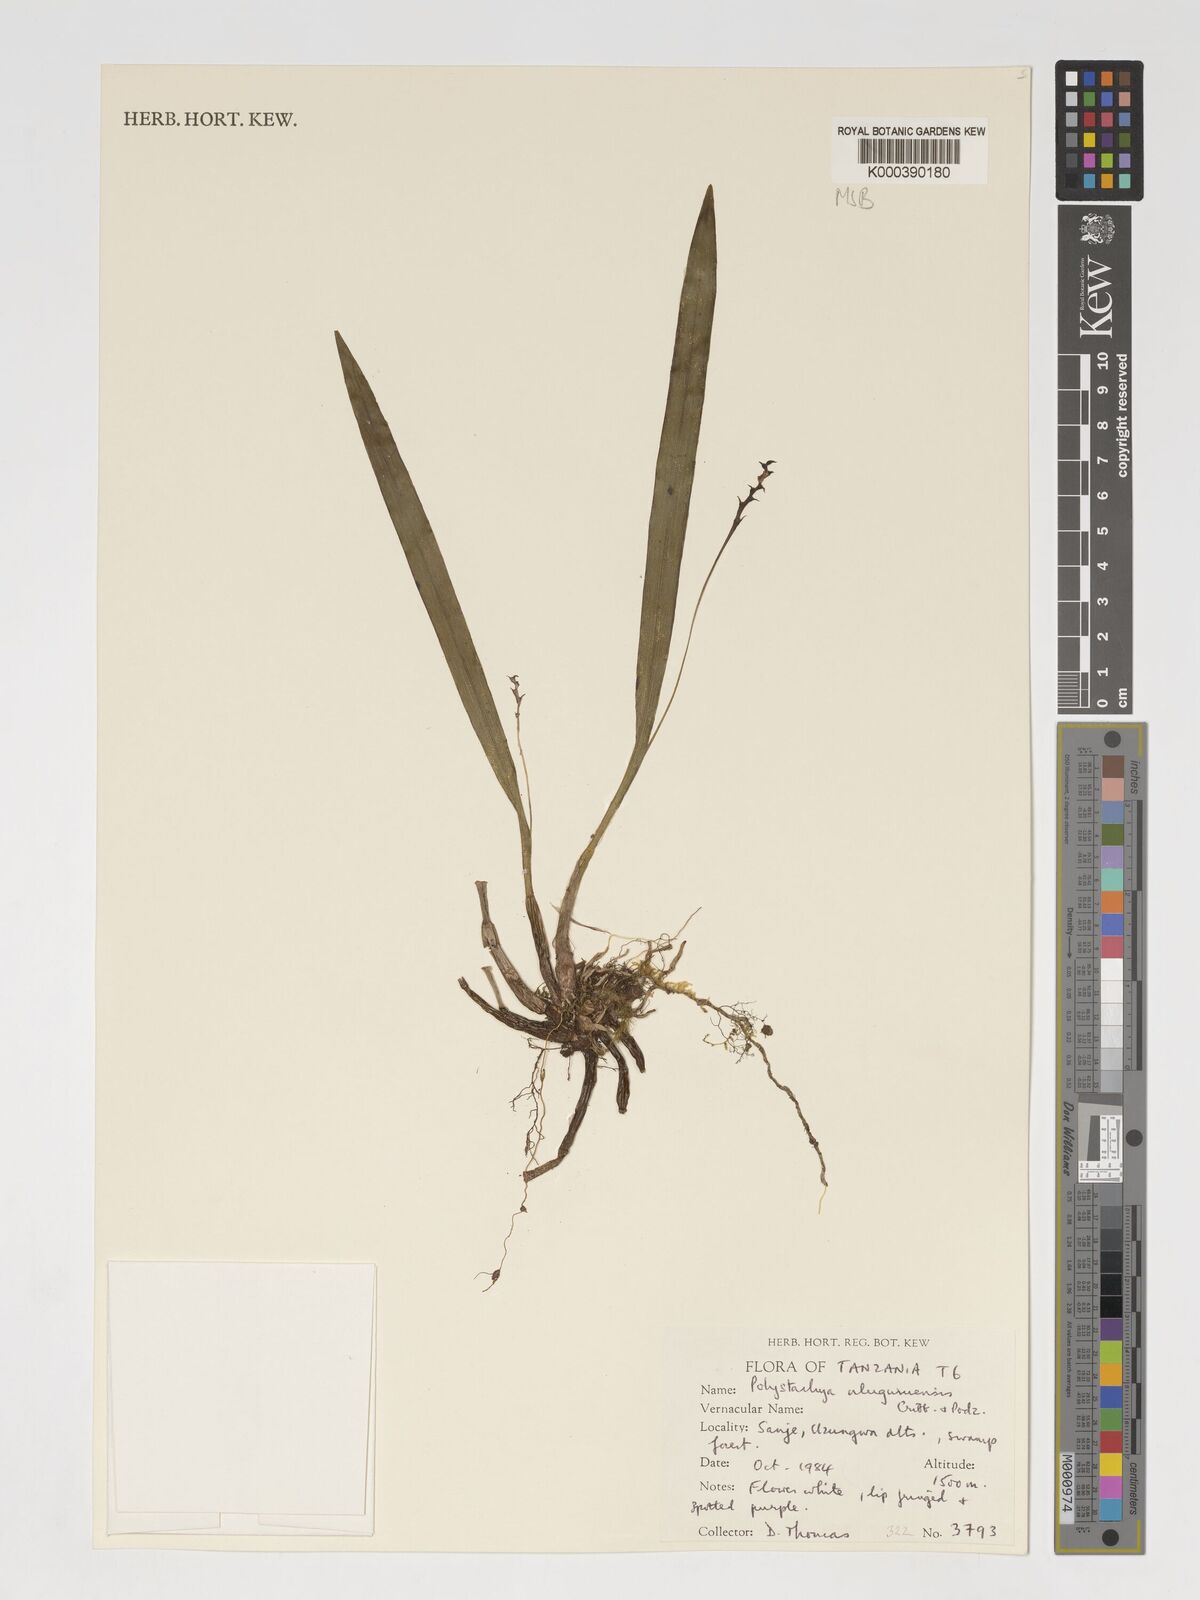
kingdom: Plantae
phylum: Tracheophyta
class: Liliopsida
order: Asparagales
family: Orchidaceae
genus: Polystachya
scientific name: Polystachya uluguruensis
